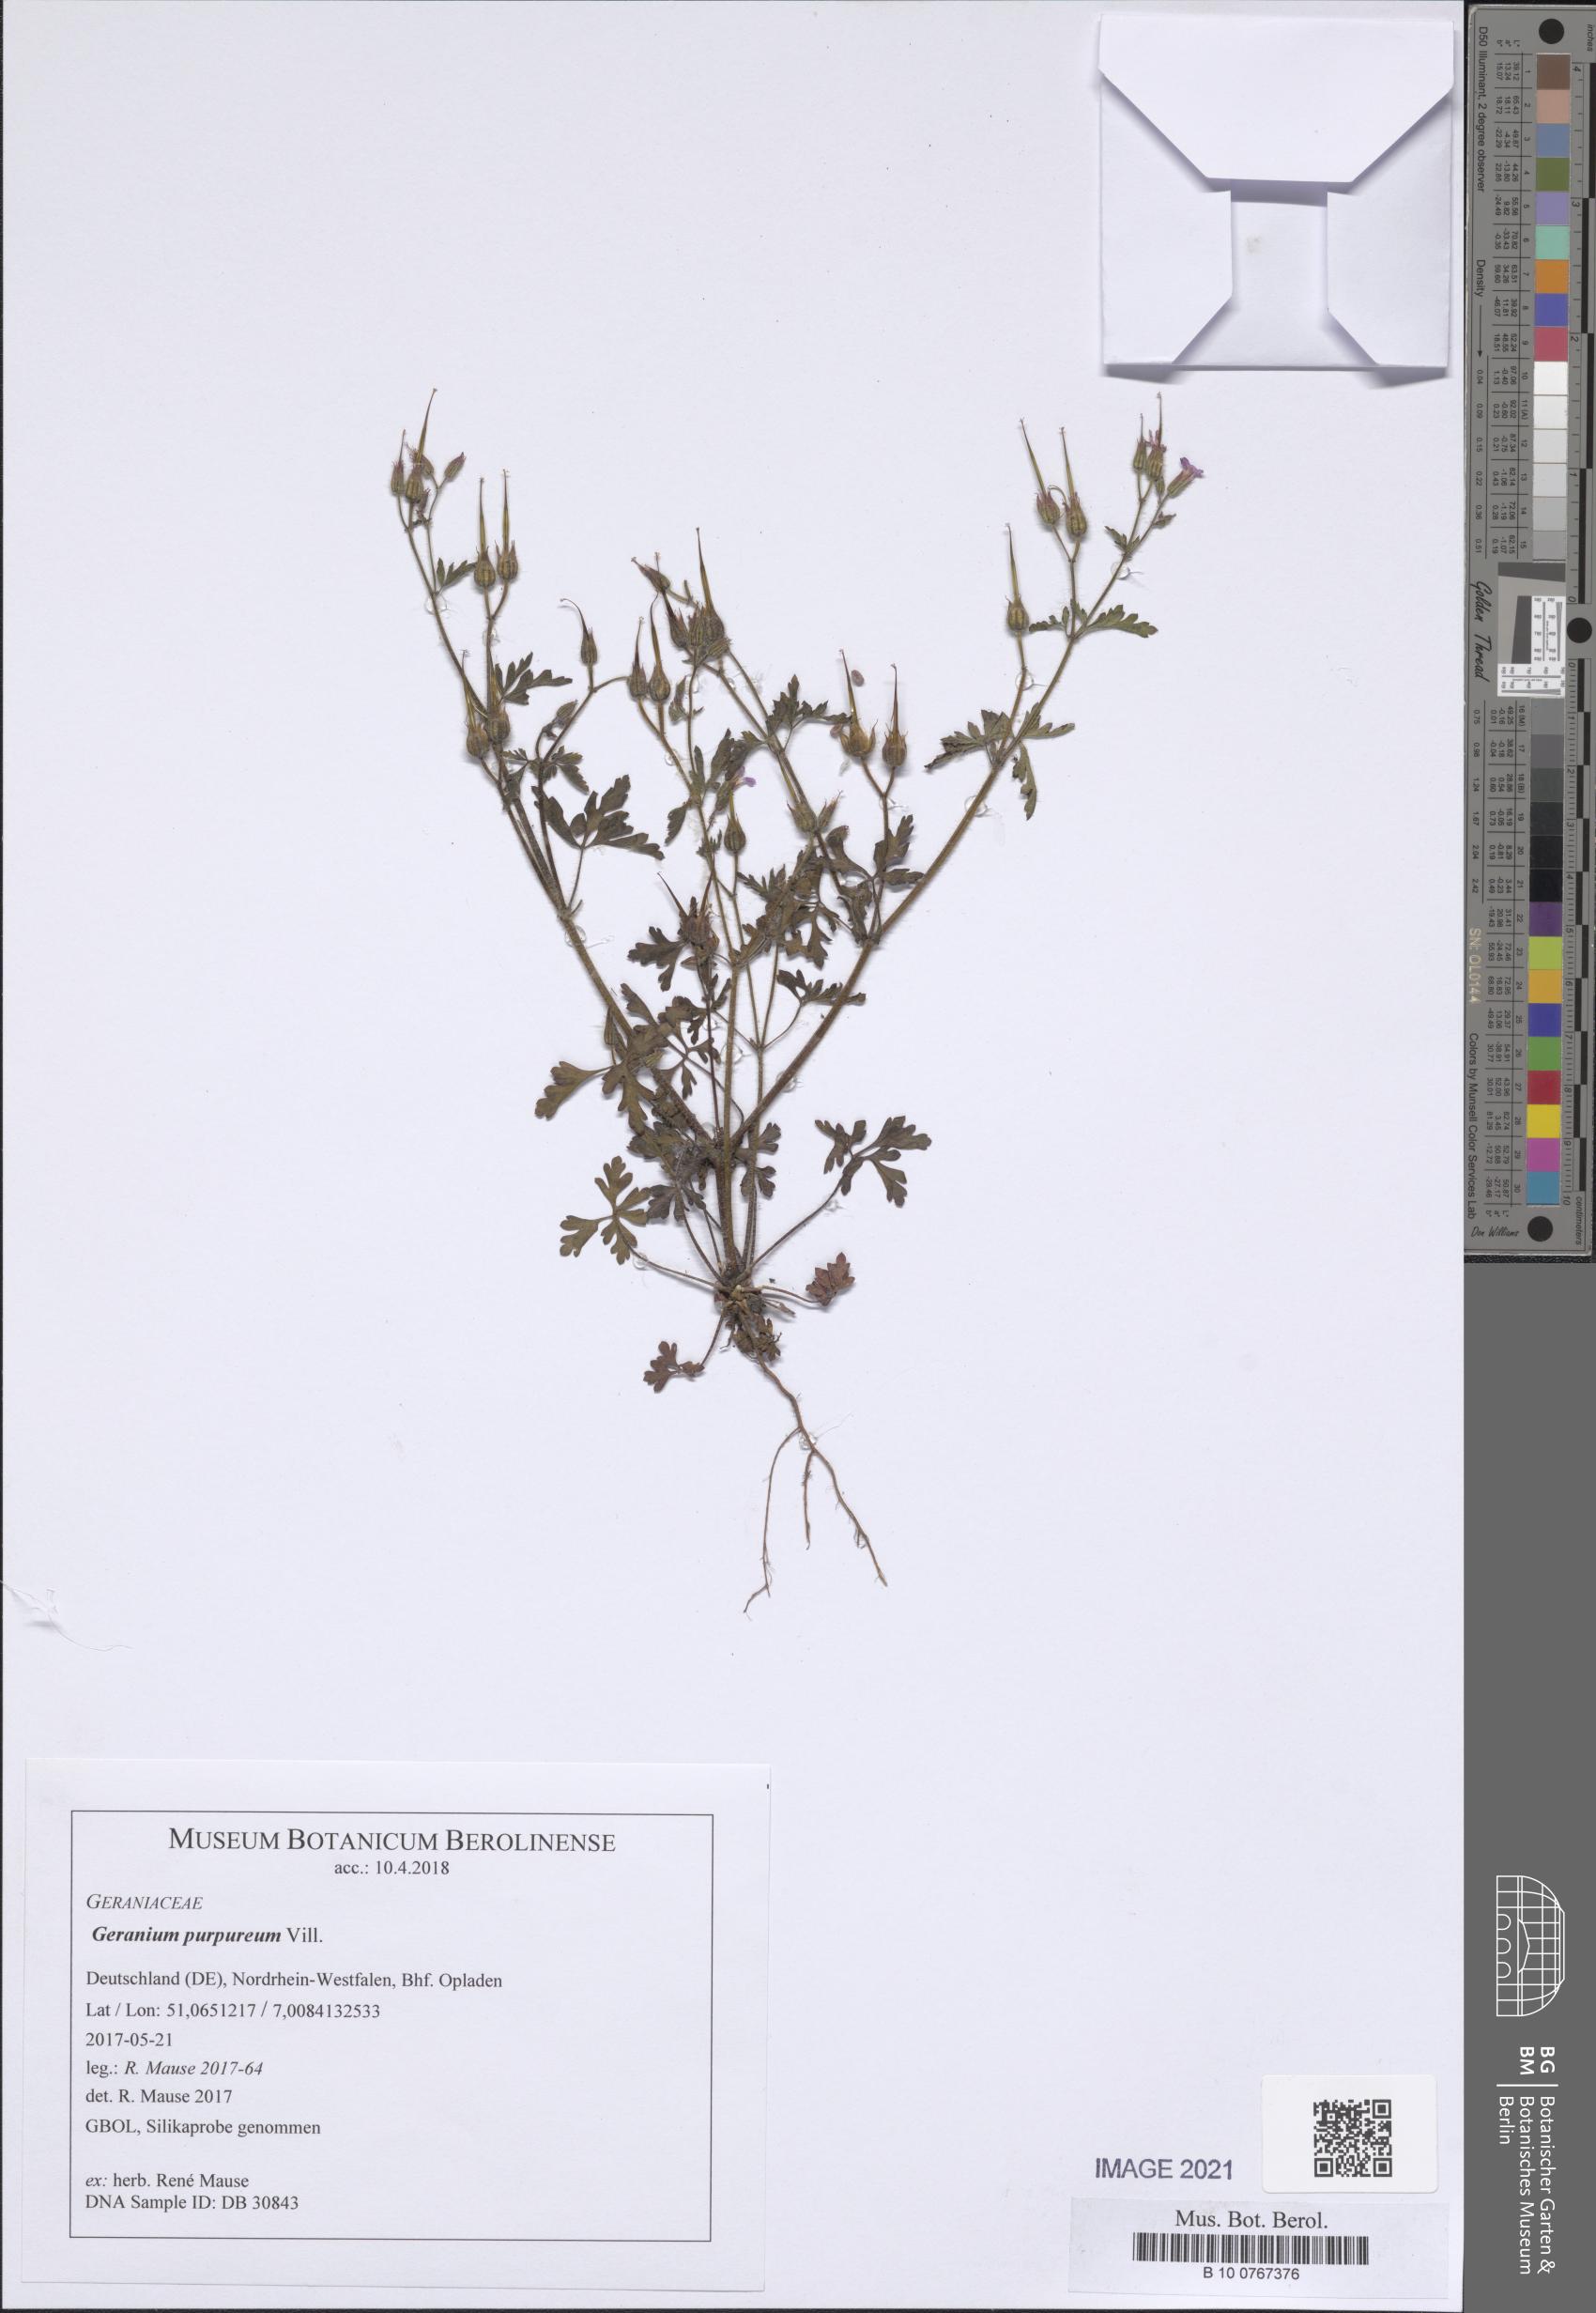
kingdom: Plantae
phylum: Tracheophyta
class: Magnoliopsida
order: Geraniales
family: Geraniaceae
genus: Geranium
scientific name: Geranium purpureum
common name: Little-robin
